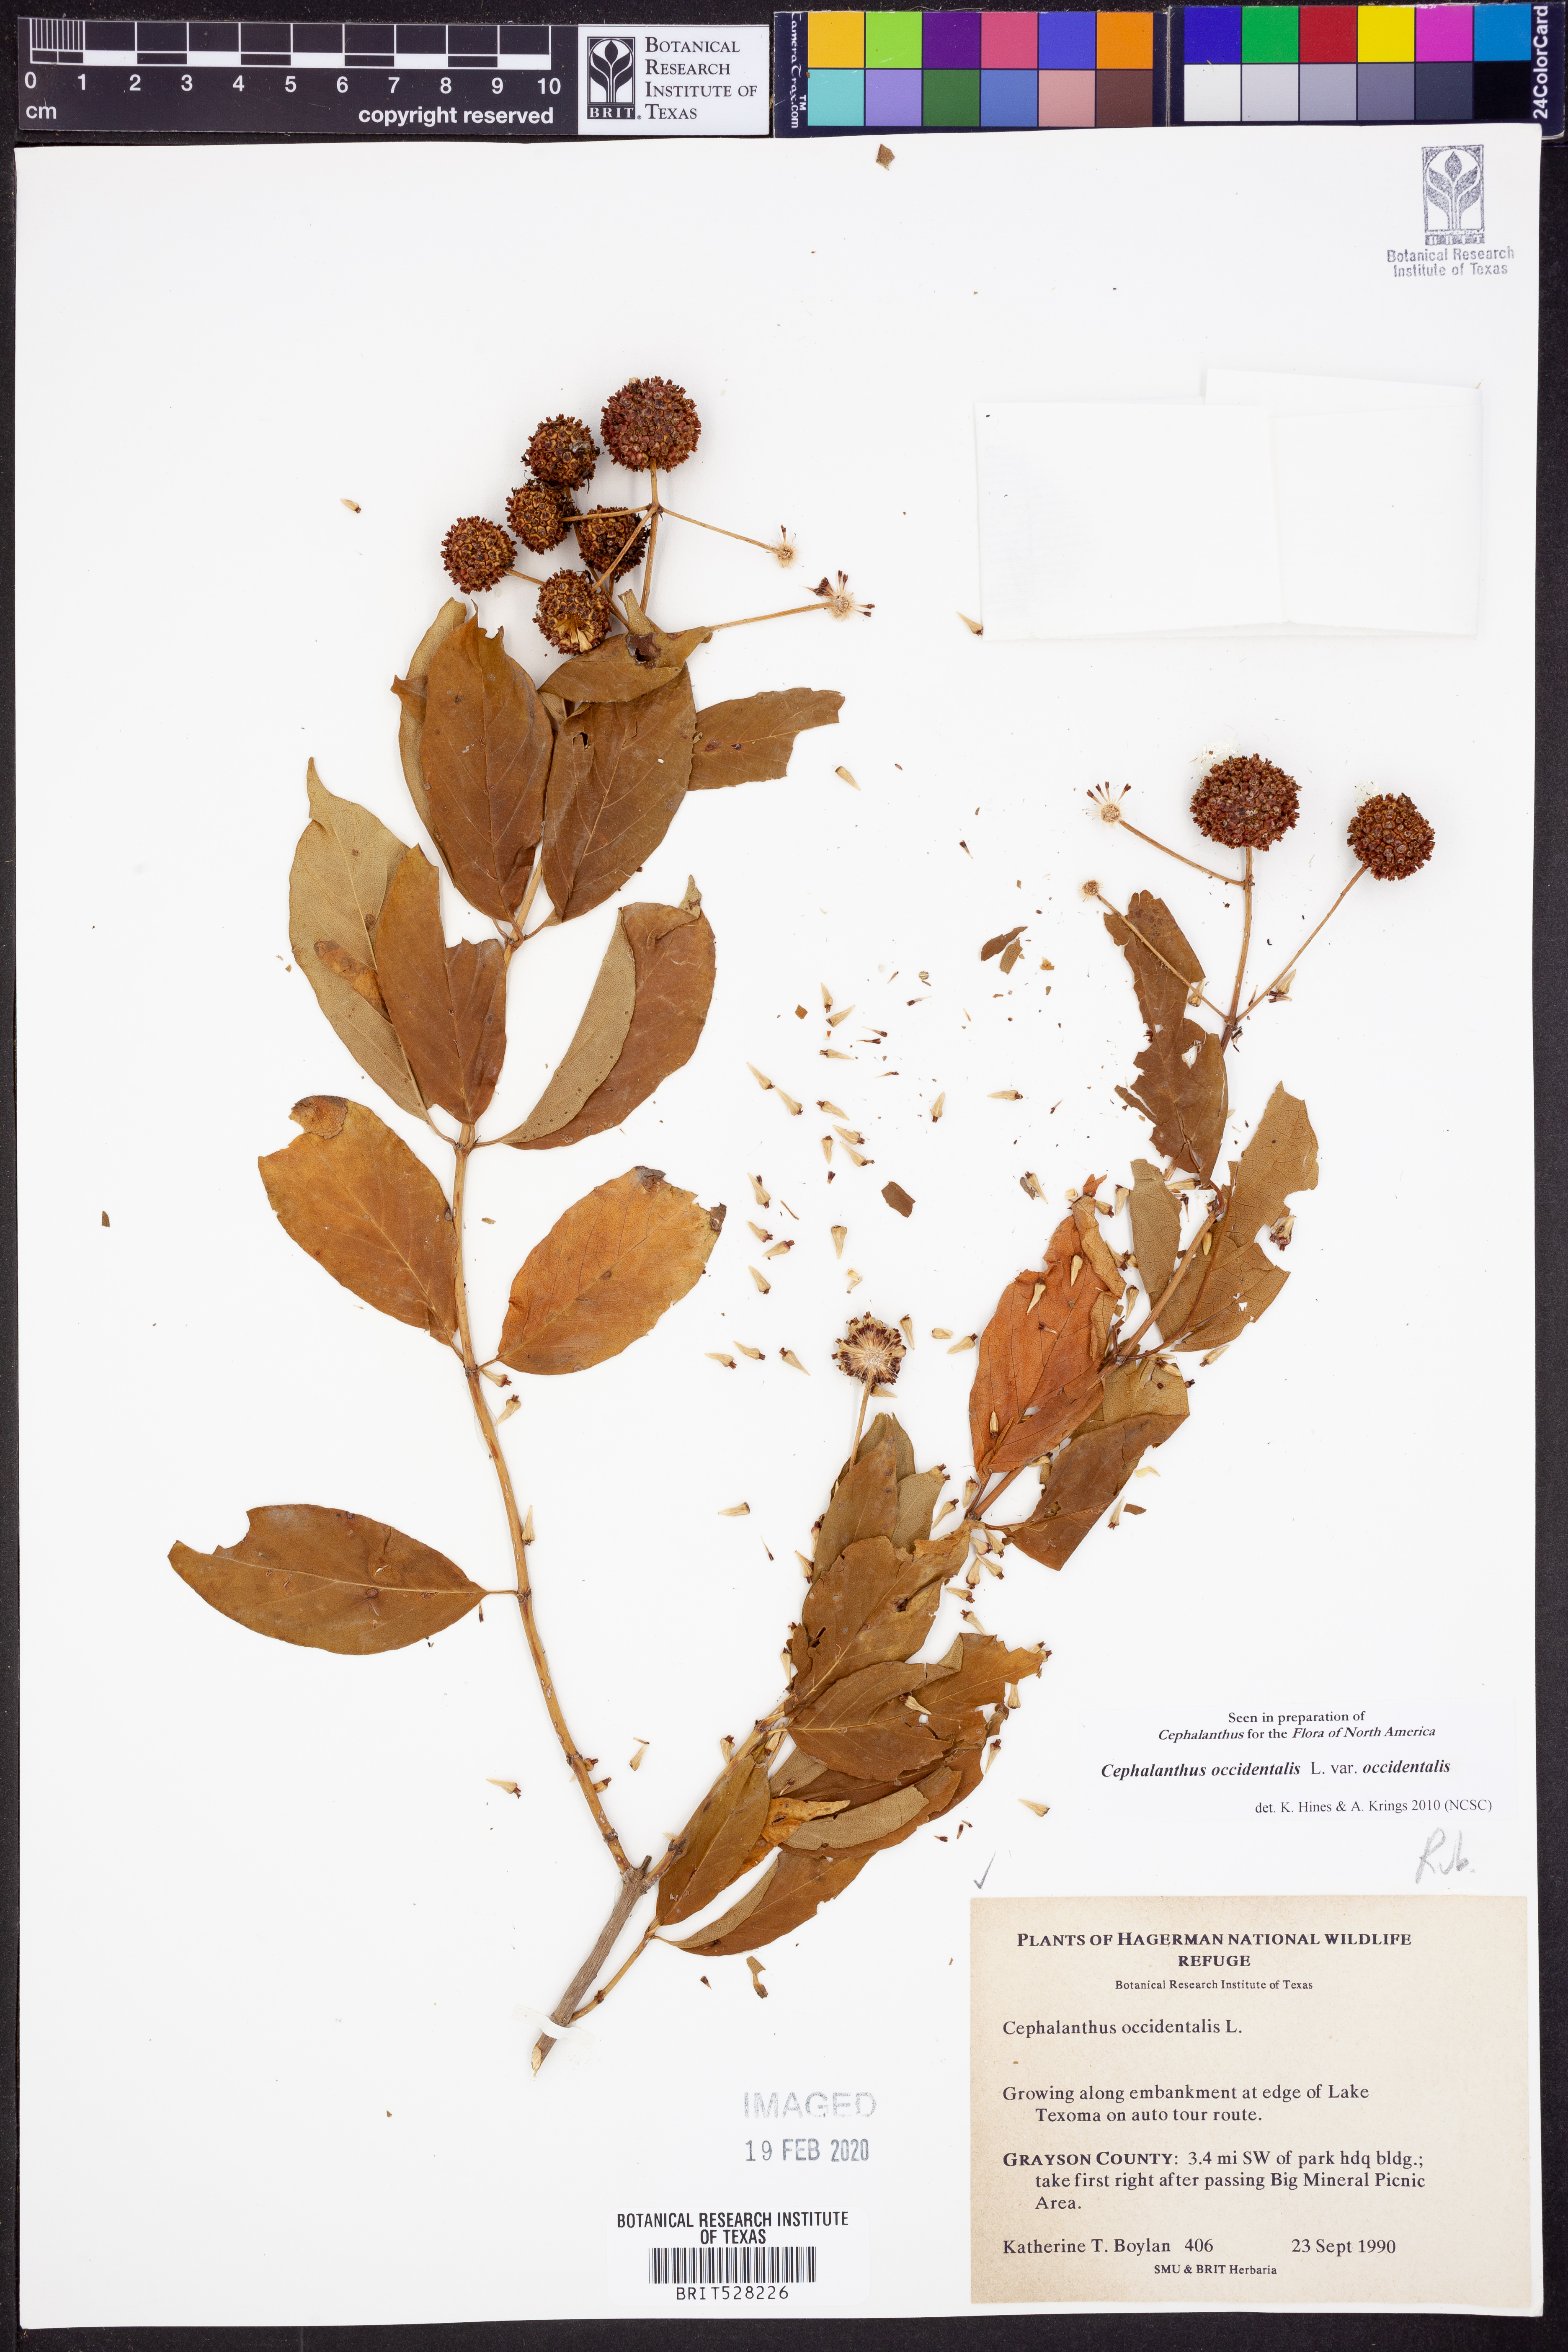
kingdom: Plantae
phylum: Tracheophyta
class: Magnoliopsida
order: Gentianales
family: Rubiaceae
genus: Cephalanthus
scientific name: Cephalanthus occidentalis
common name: Button-willow
